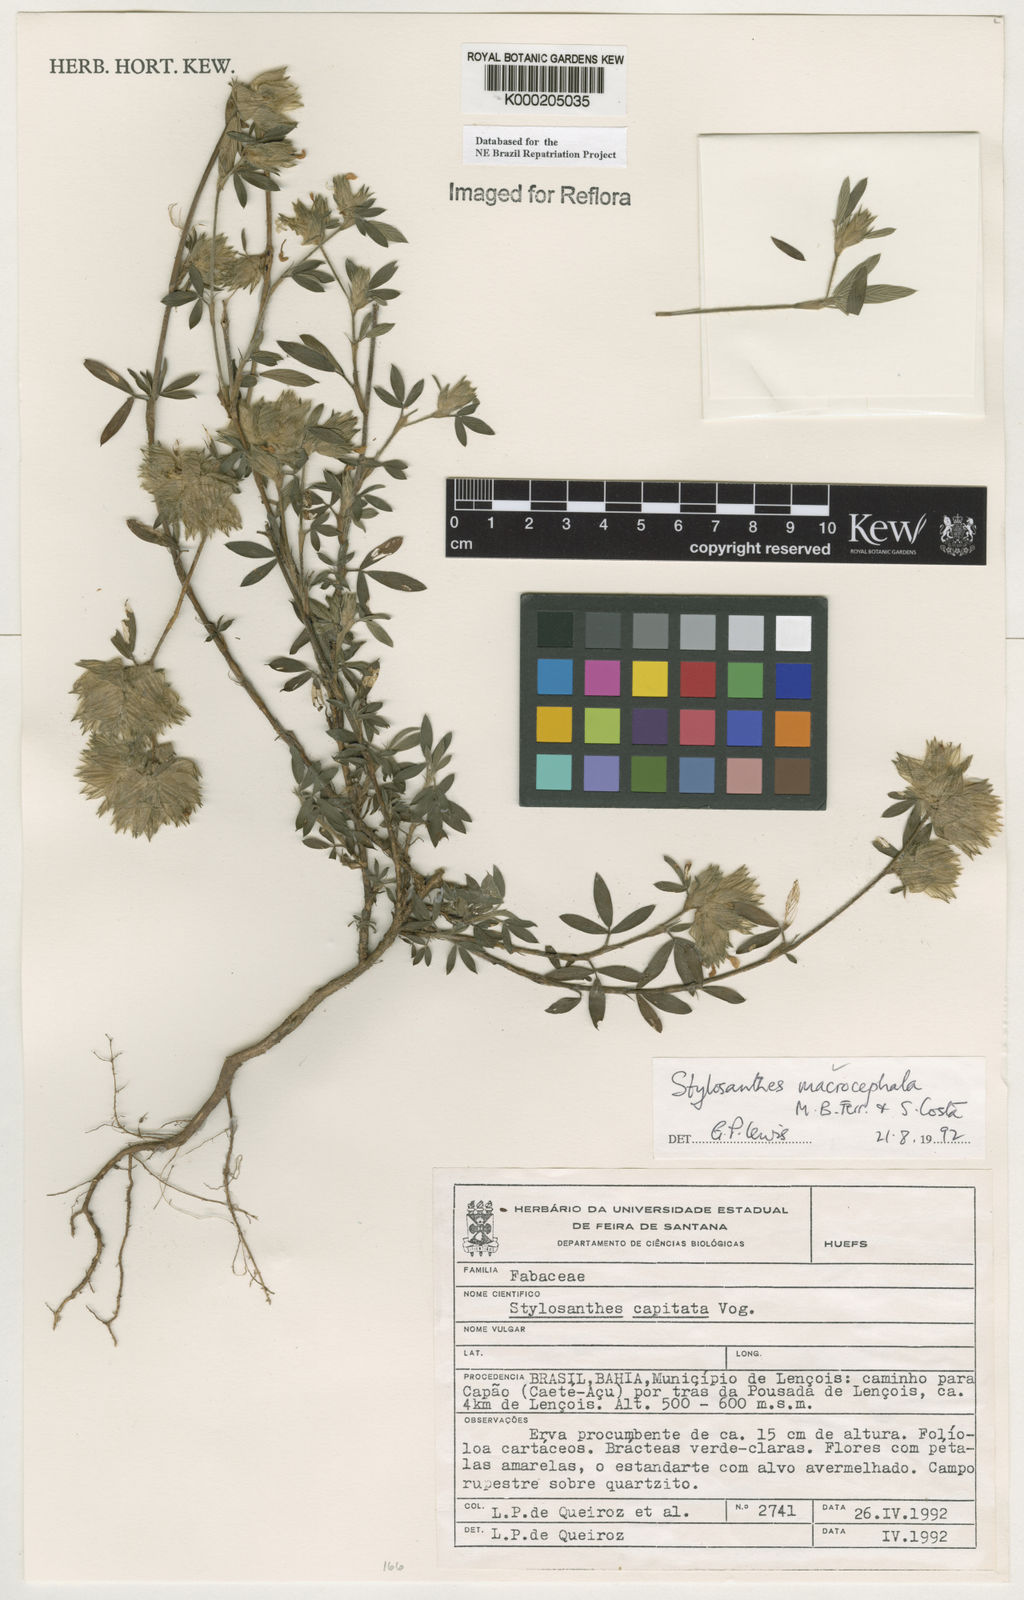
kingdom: Plantae
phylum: Tracheophyta
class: Magnoliopsida
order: Fabales
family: Fabaceae
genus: Stylosanthes
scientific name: Stylosanthes macrocephala
